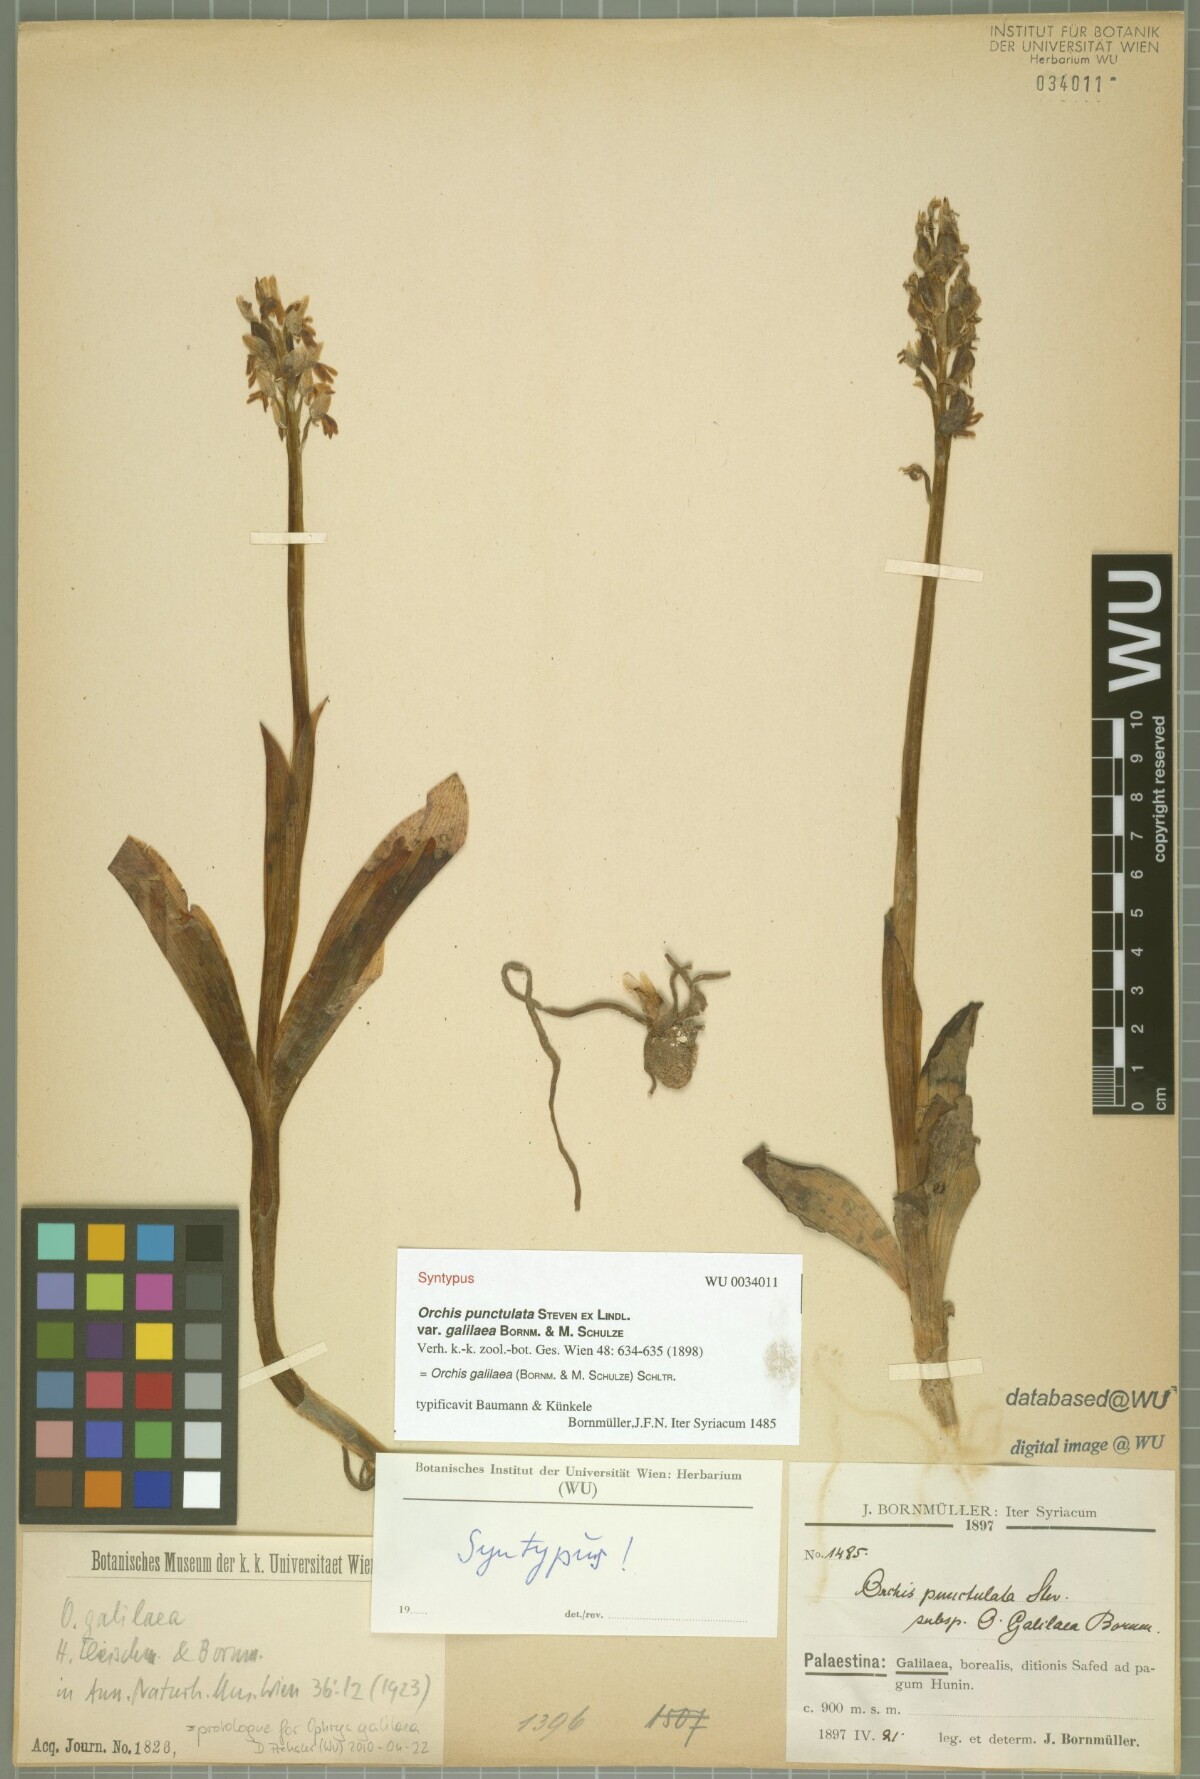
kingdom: Plantae
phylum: Tracheophyta
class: Liliopsida
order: Asparagales
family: Orchidaceae
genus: Orchis
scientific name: Orchis galilaea
